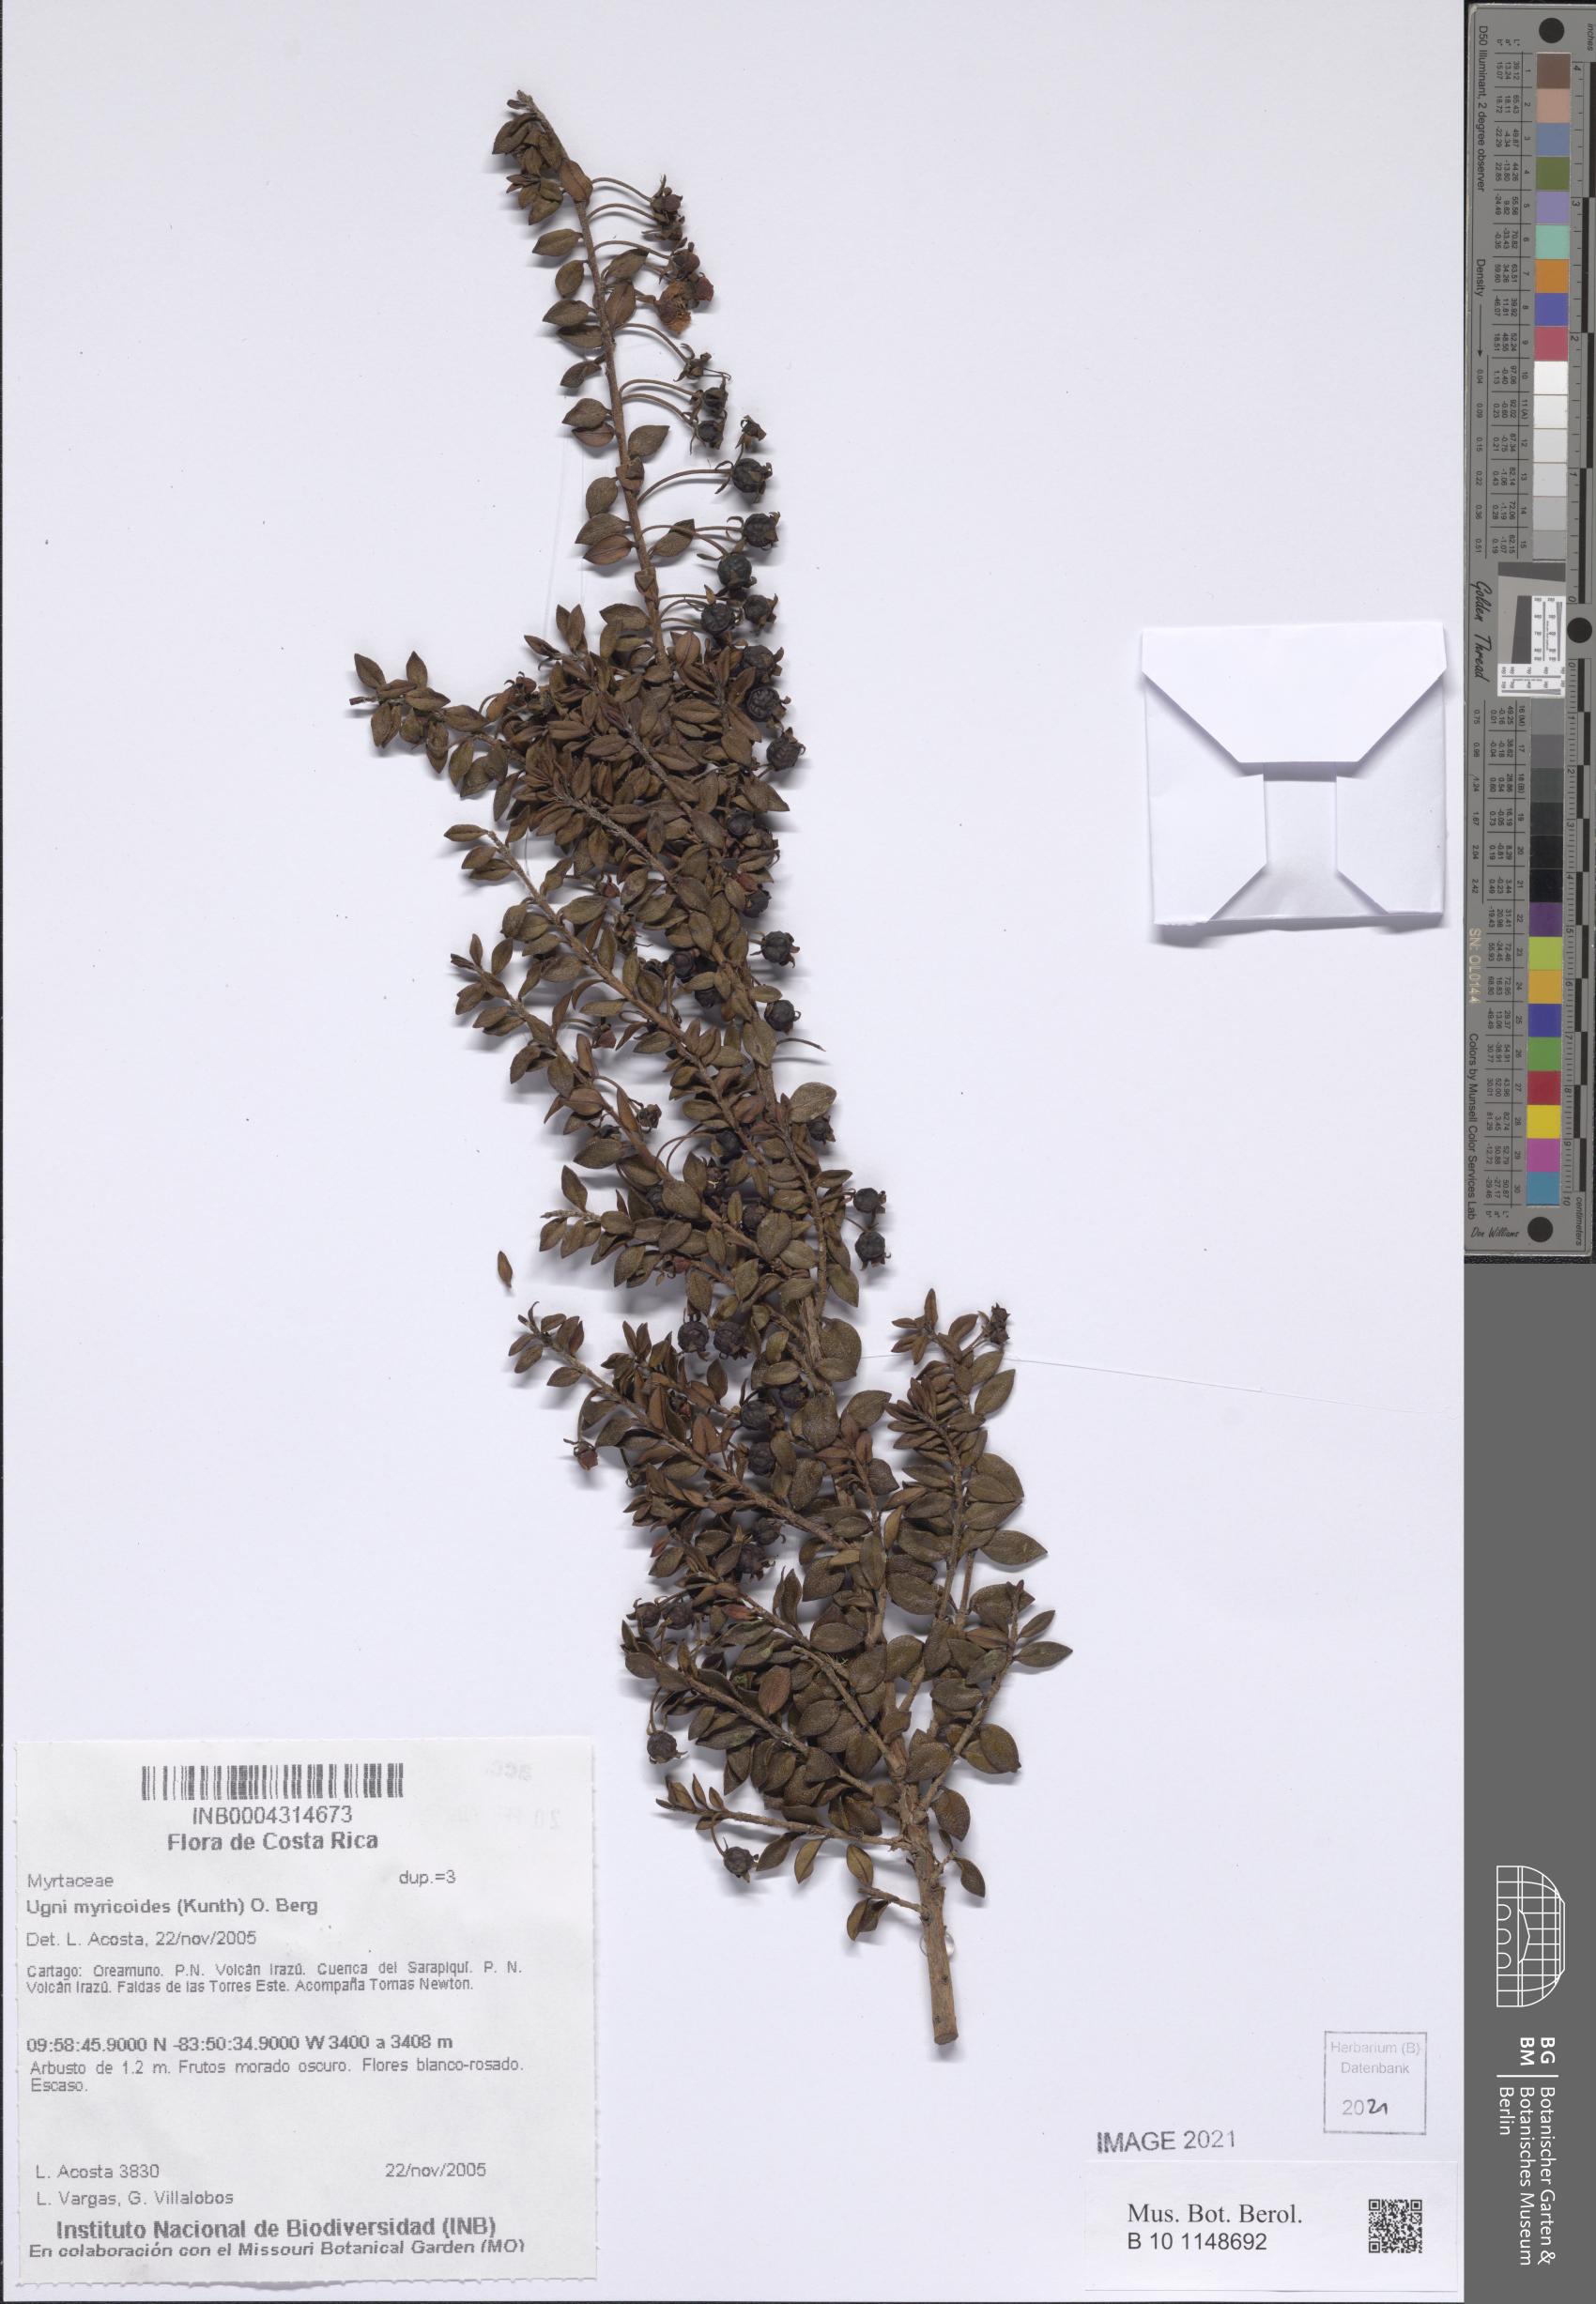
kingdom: Plantae
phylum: Tracheophyta
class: Magnoliopsida
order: Myrtales
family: Myrtaceae
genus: Ugni
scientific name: Ugni myricoides
